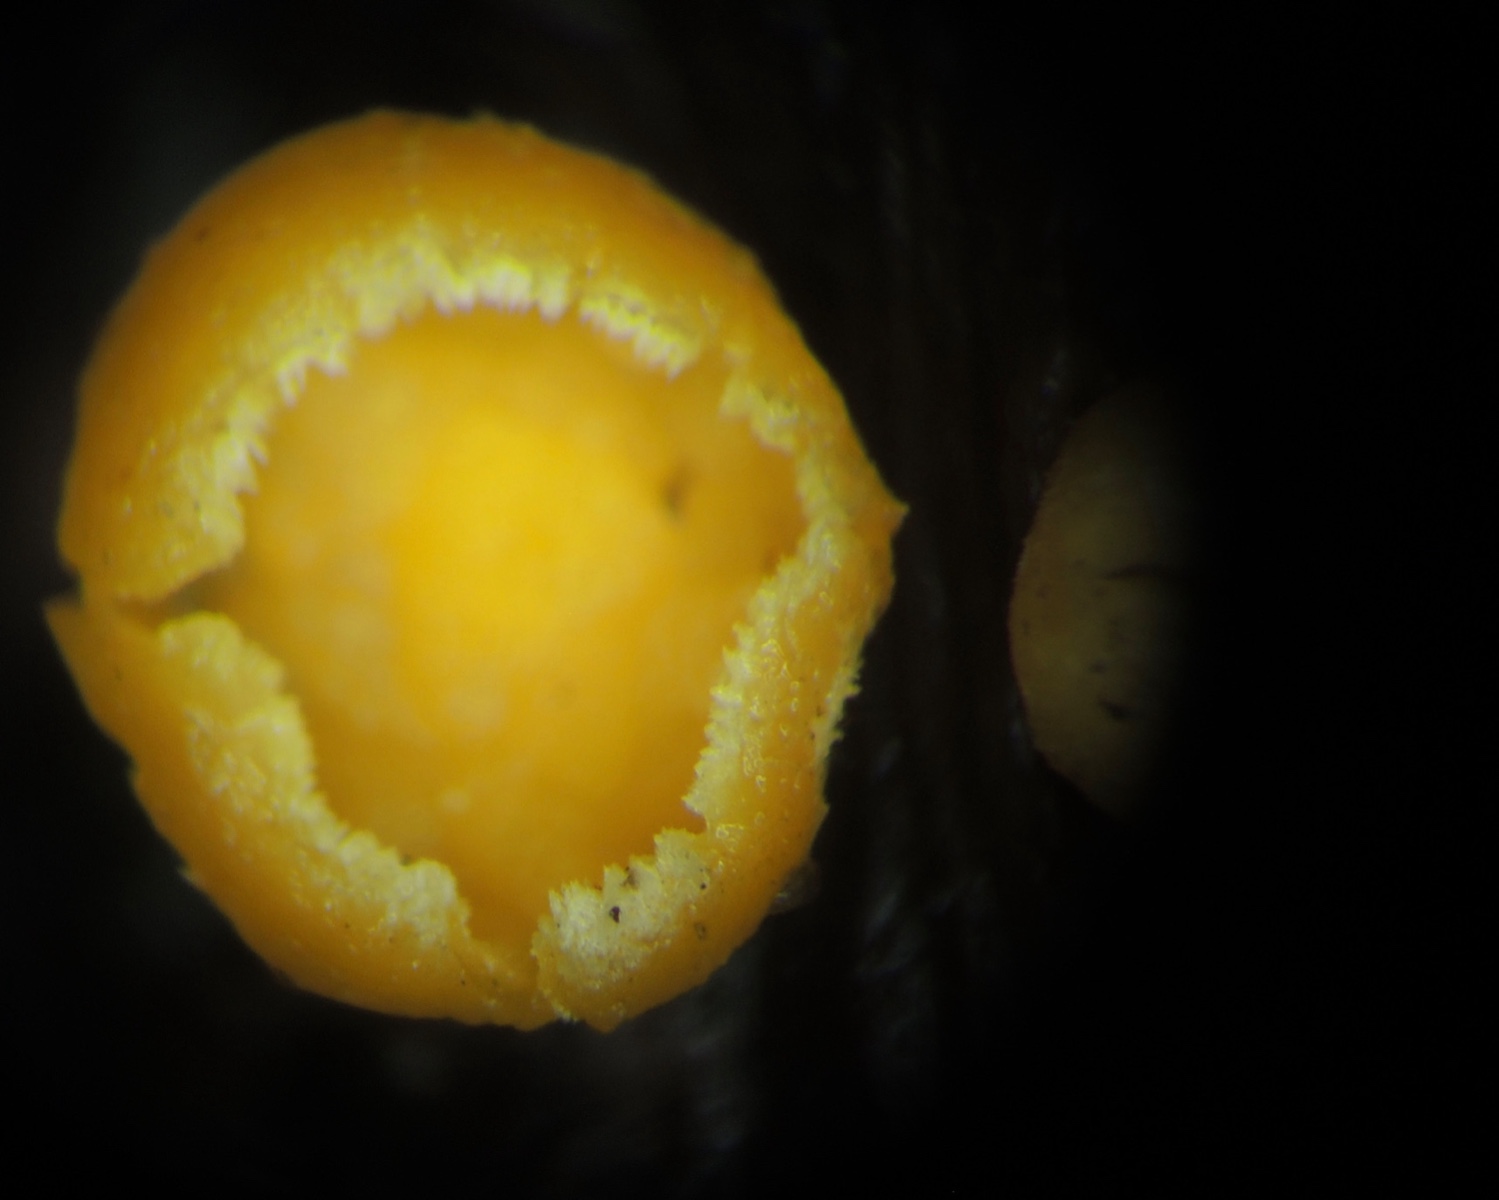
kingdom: Fungi
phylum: Ascomycota
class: Leotiomycetes
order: Helotiales
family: Lachnaceae
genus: Lachnellula
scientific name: Lachnellula subtilissima
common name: gran-frynseskive
